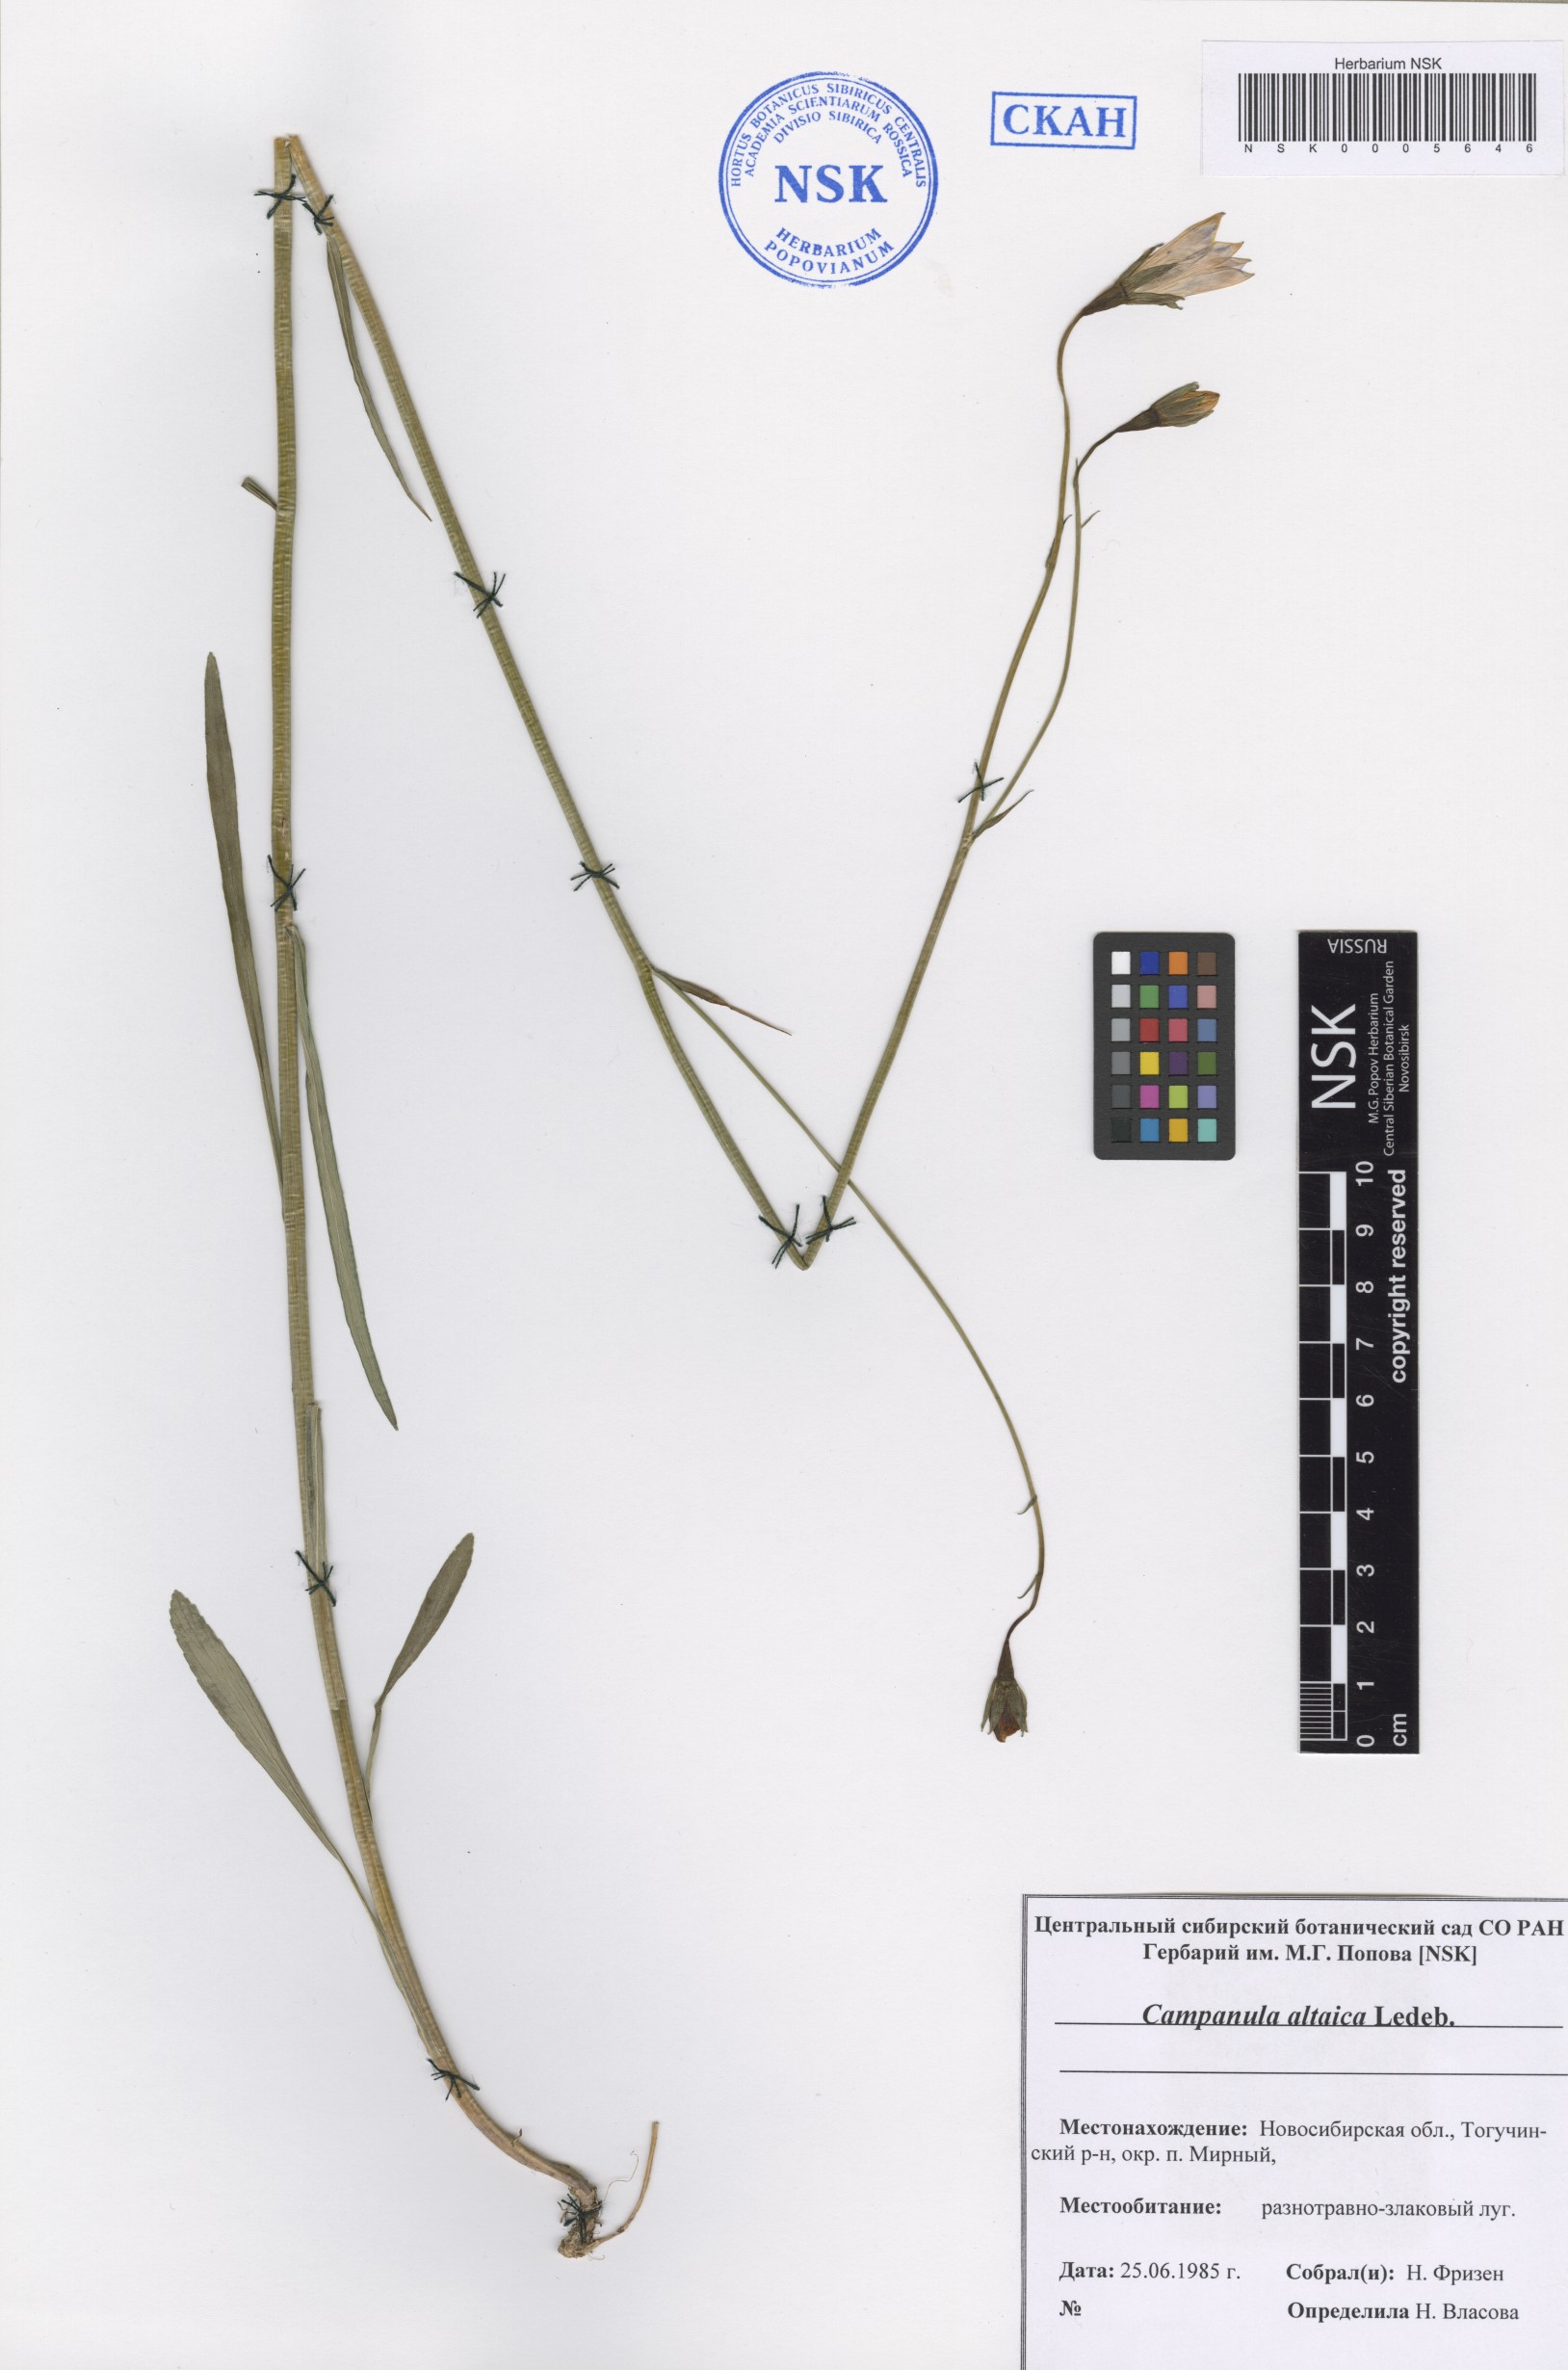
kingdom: Plantae
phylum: Tracheophyta
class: Magnoliopsida
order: Asterales
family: Campanulaceae
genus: Campanula
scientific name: Campanula stevenii
